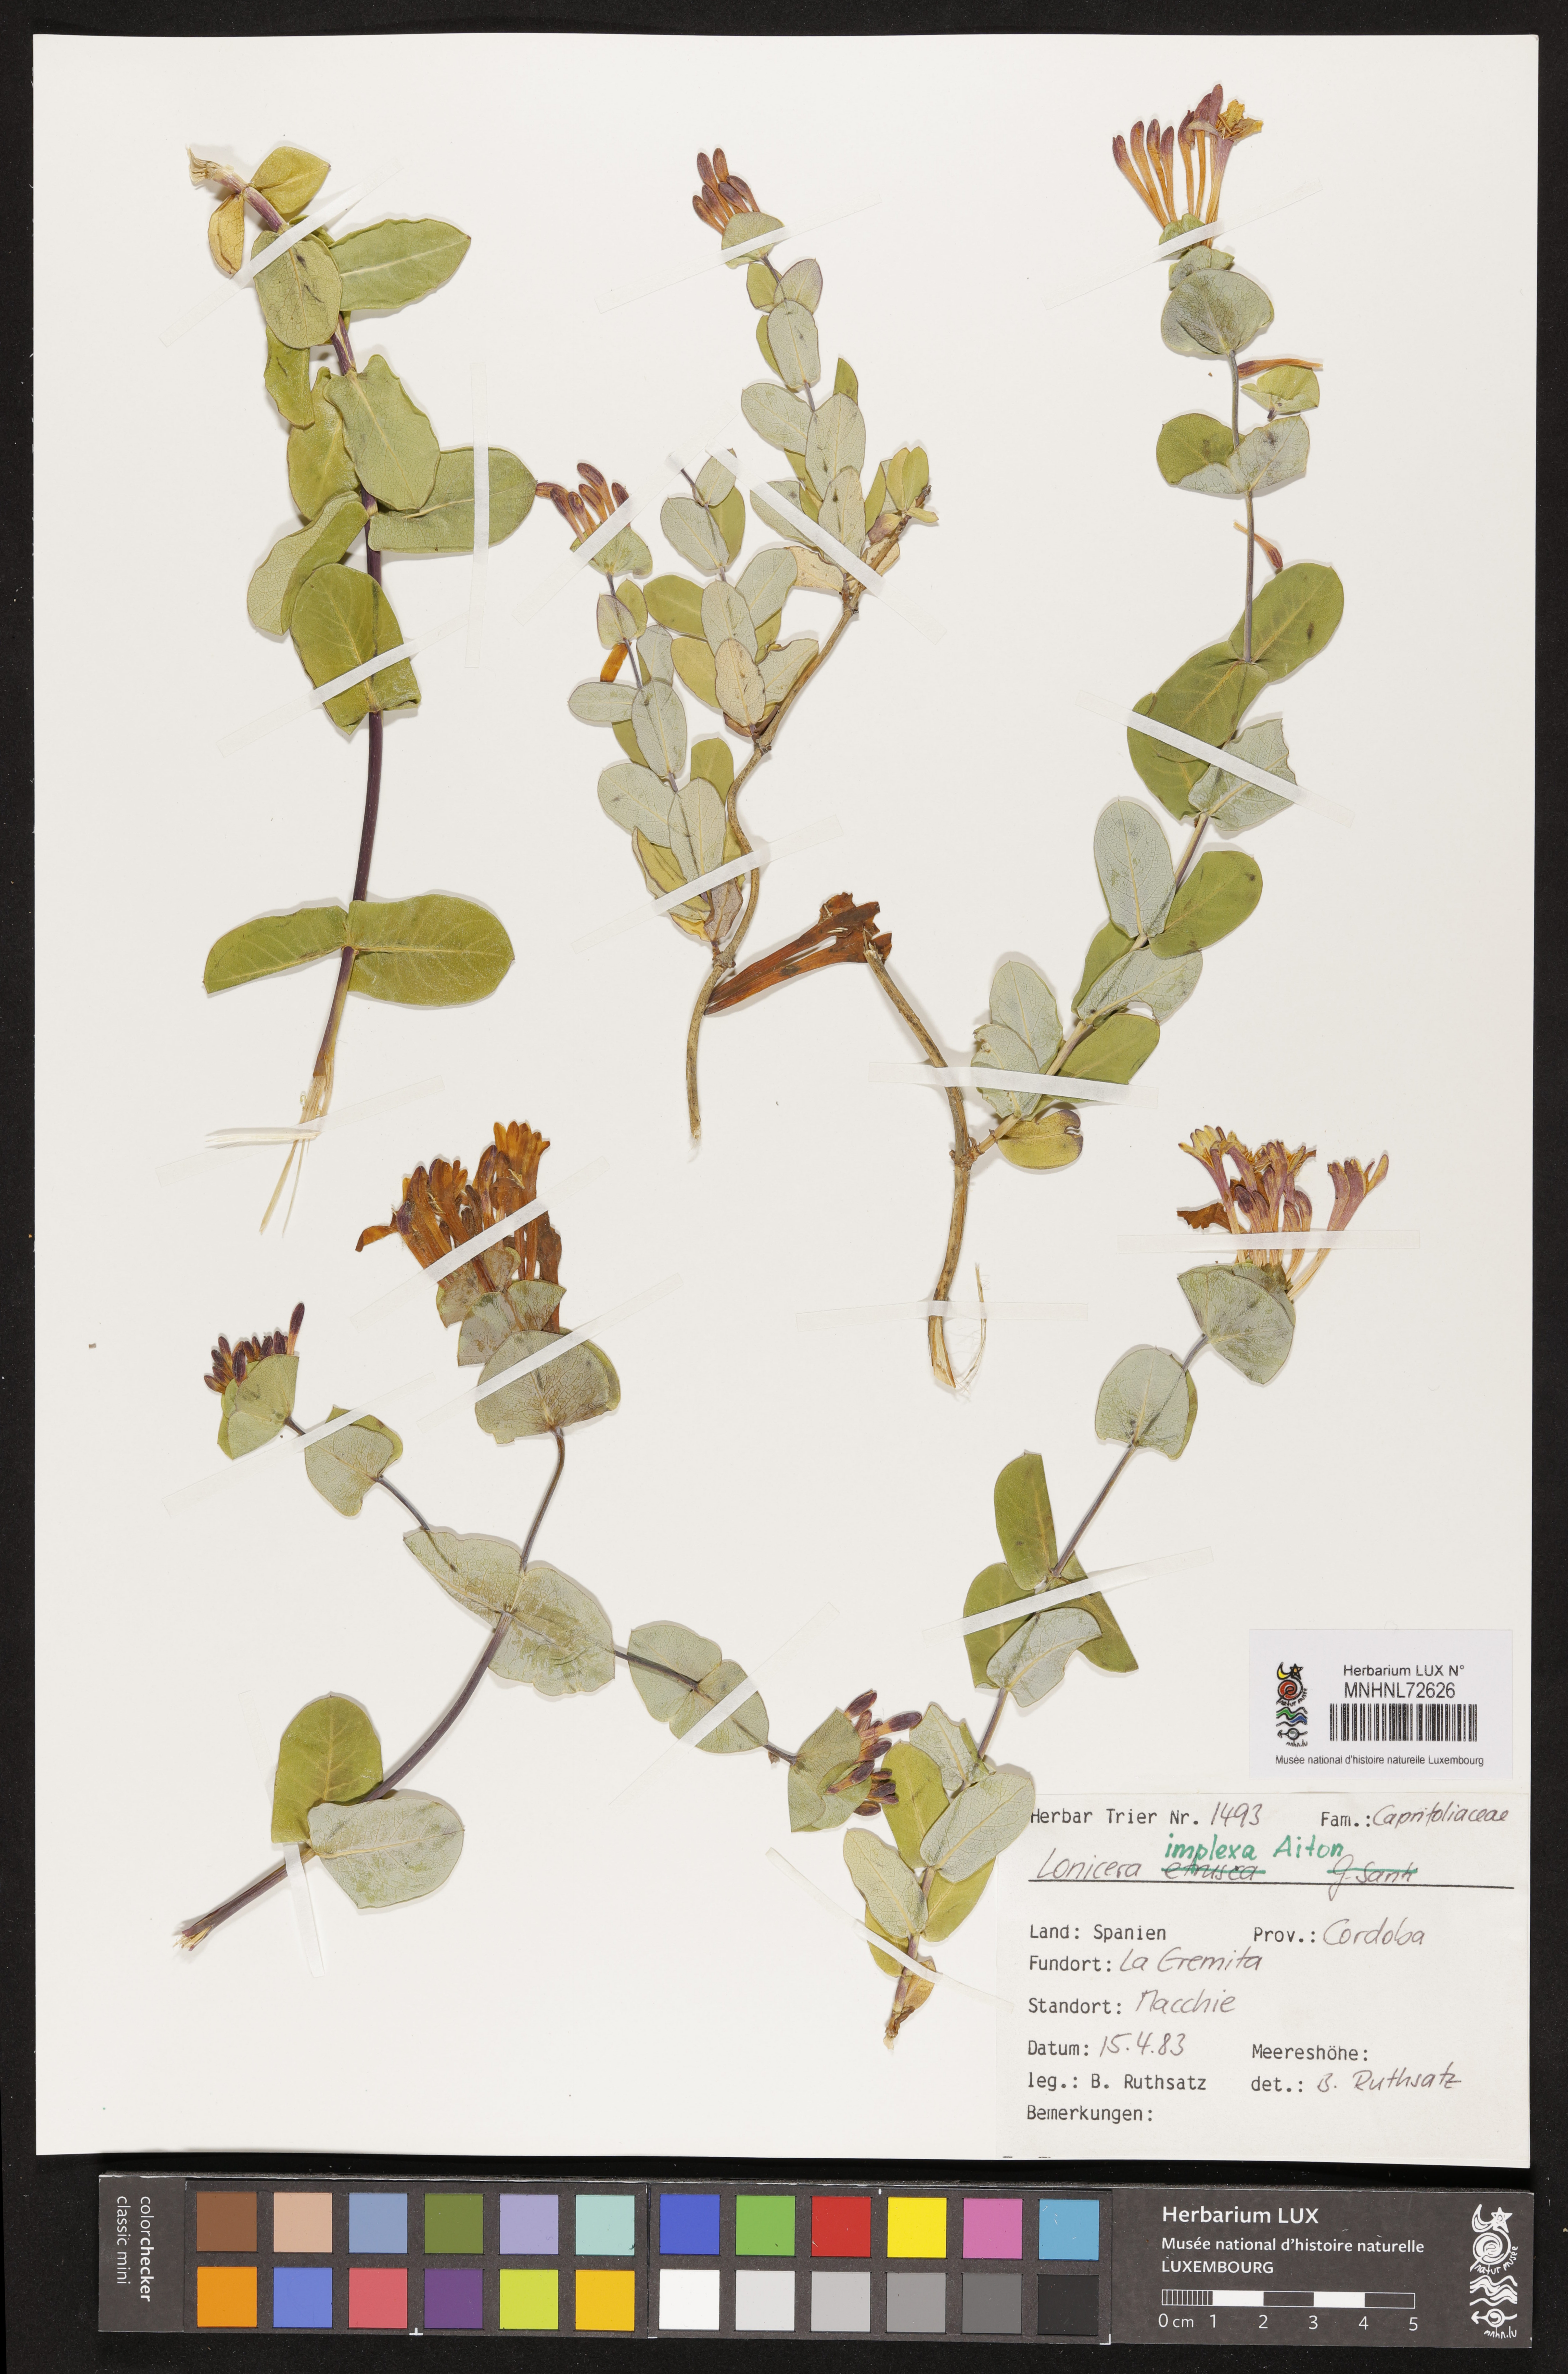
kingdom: Plantae
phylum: Tracheophyta
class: Magnoliopsida
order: Dipsacales
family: Caprifoliaceae
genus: Lonicera
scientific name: Lonicera implexa
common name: Minorca honeysuckle
